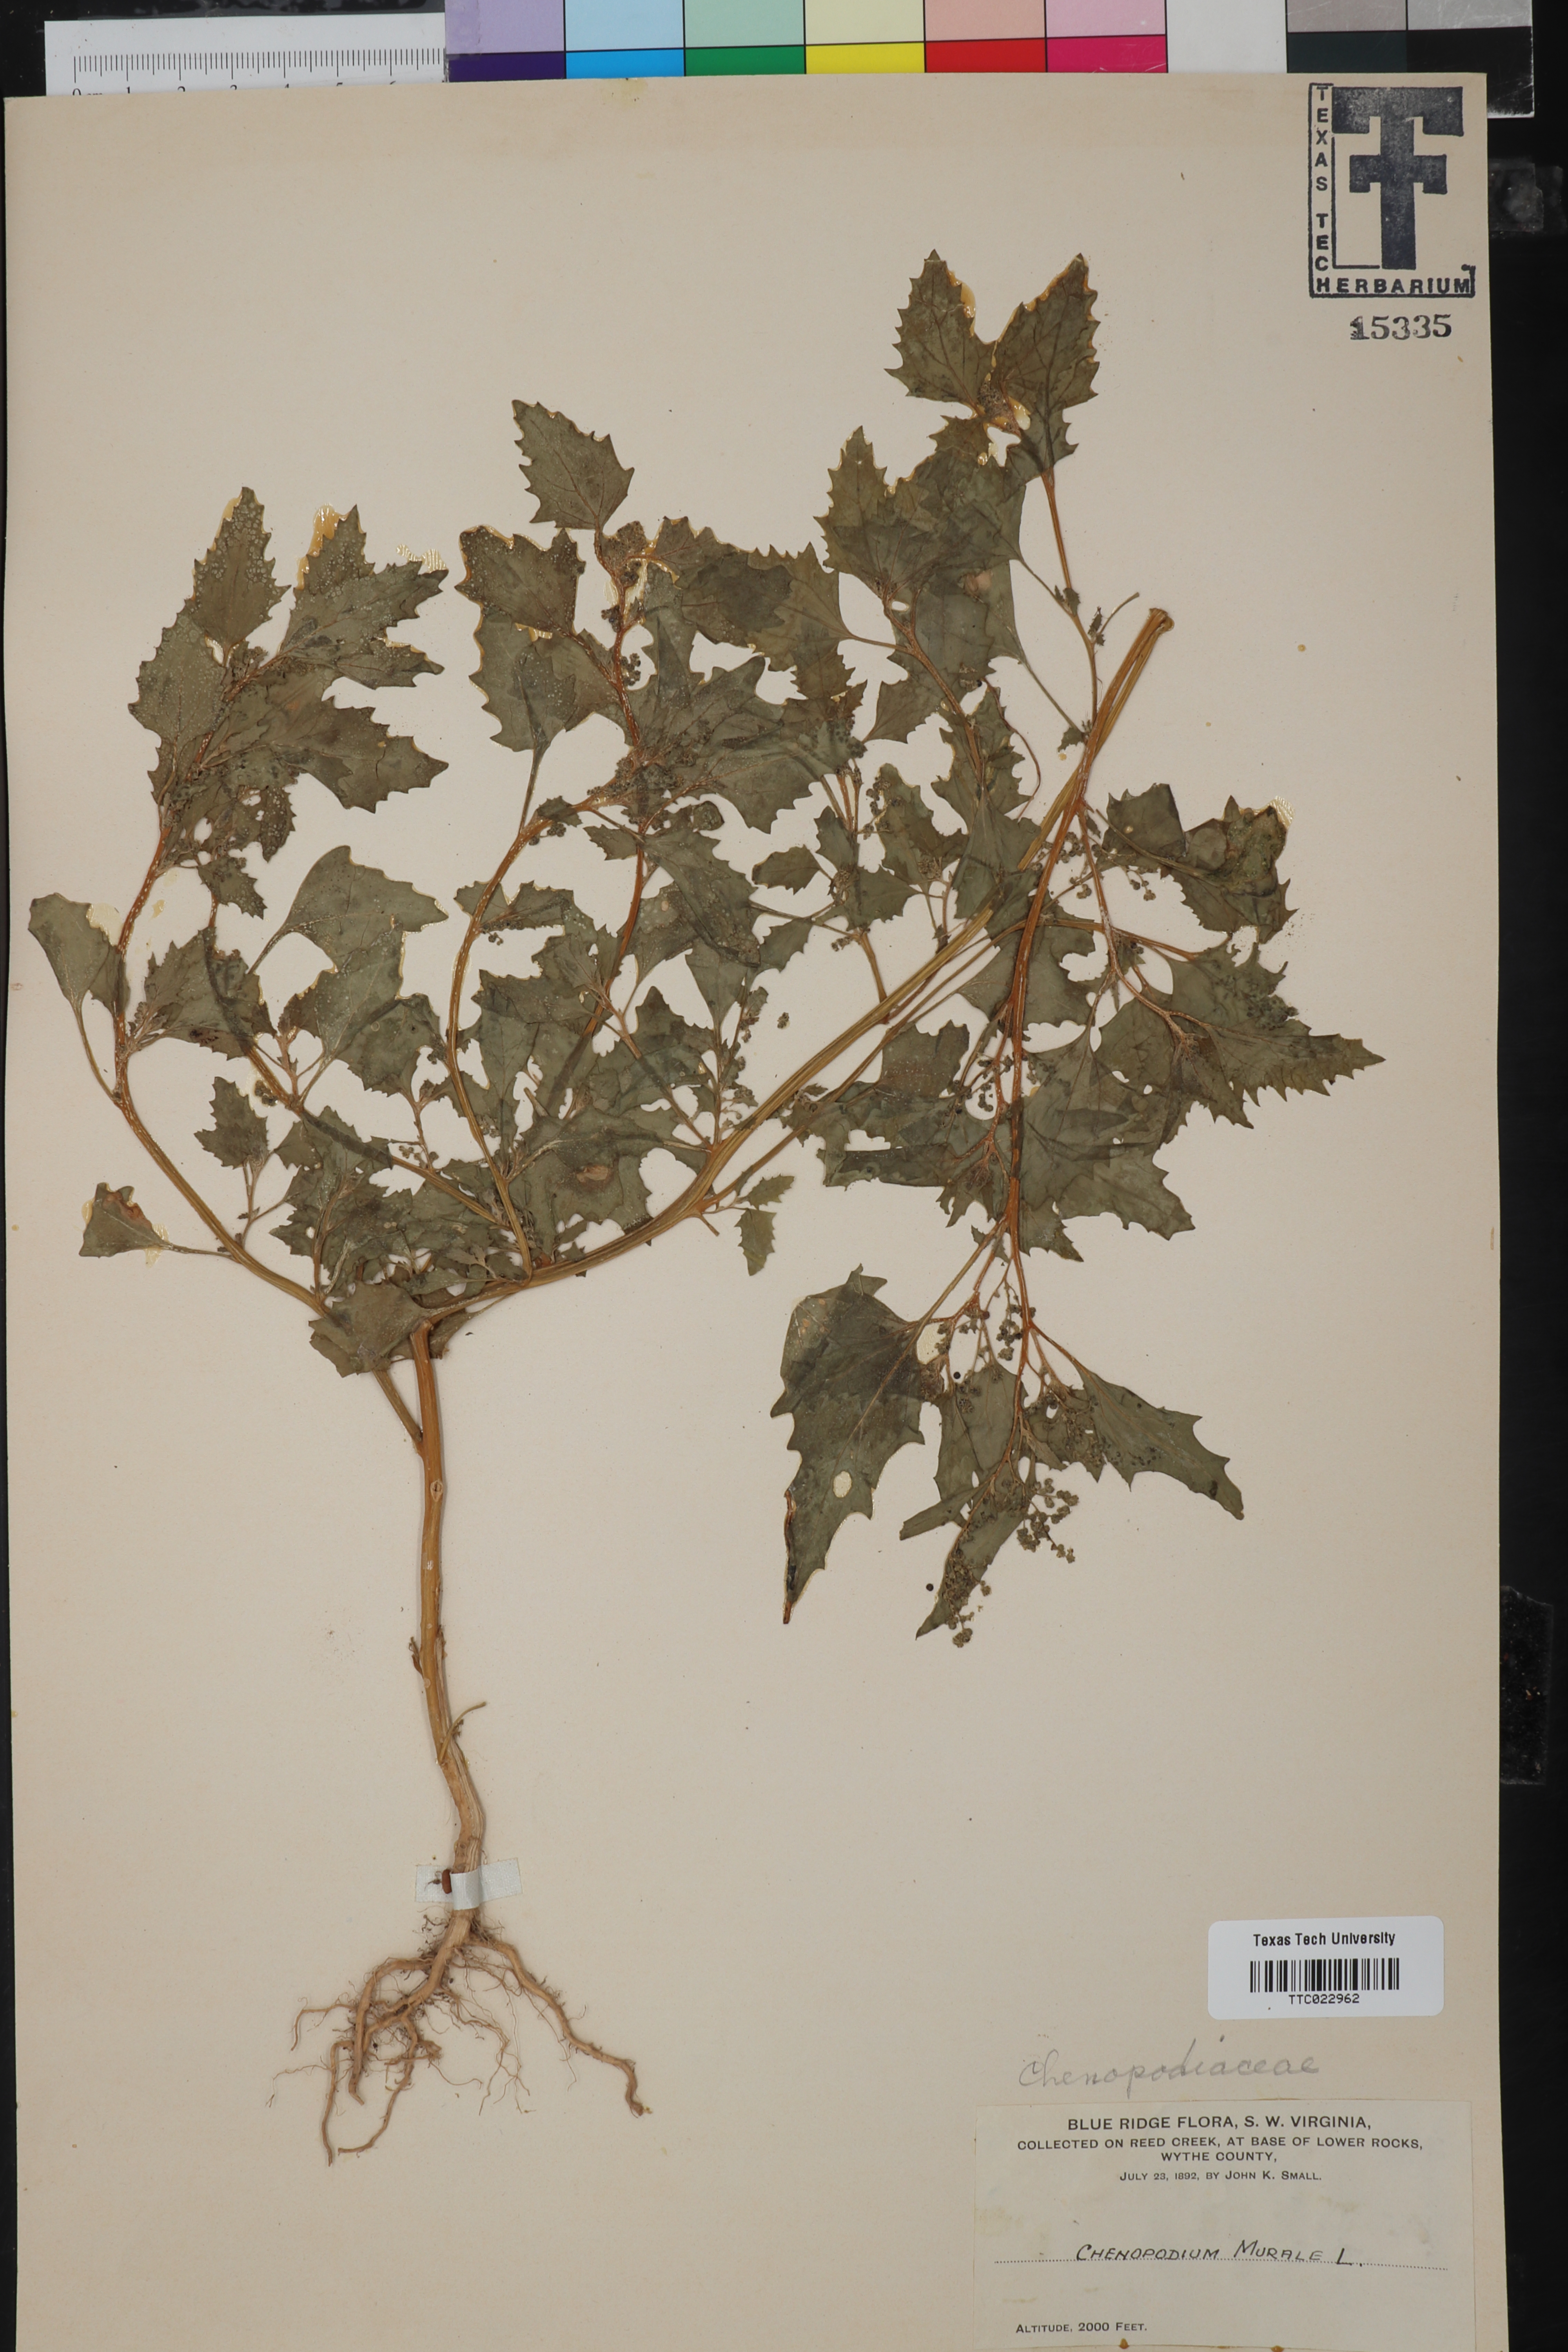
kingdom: Plantae
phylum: Tracheophyta
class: Magnoliopsida
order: Caryophyllales
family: Amaranthaceae
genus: Chenopodiastrum
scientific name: Chenopodiastrum murale
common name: Sowbane
